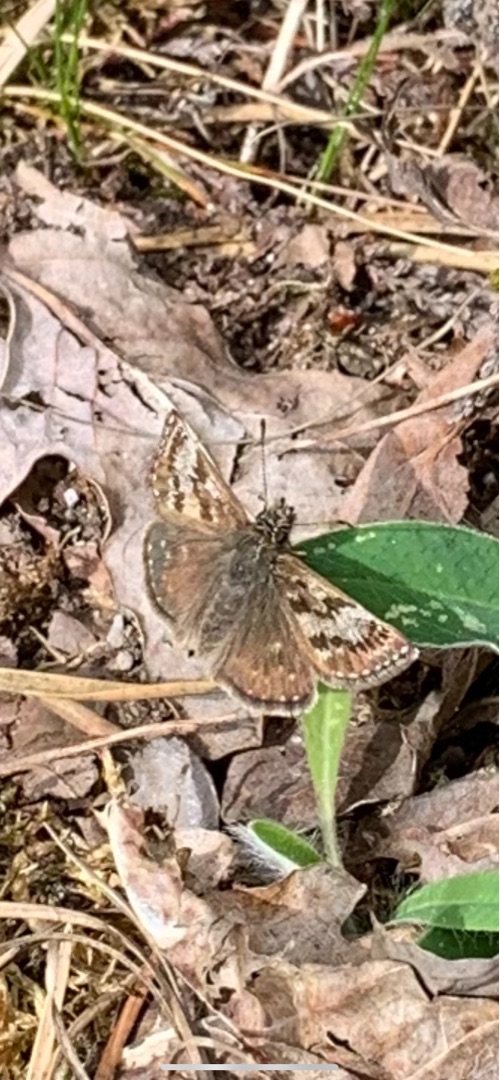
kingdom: Animalia
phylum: Arthropoda
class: Insecta
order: Lepidoptera
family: Hesperiidae
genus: Erynnis
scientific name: Erynnis tages
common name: Gråbåndet bredpande
